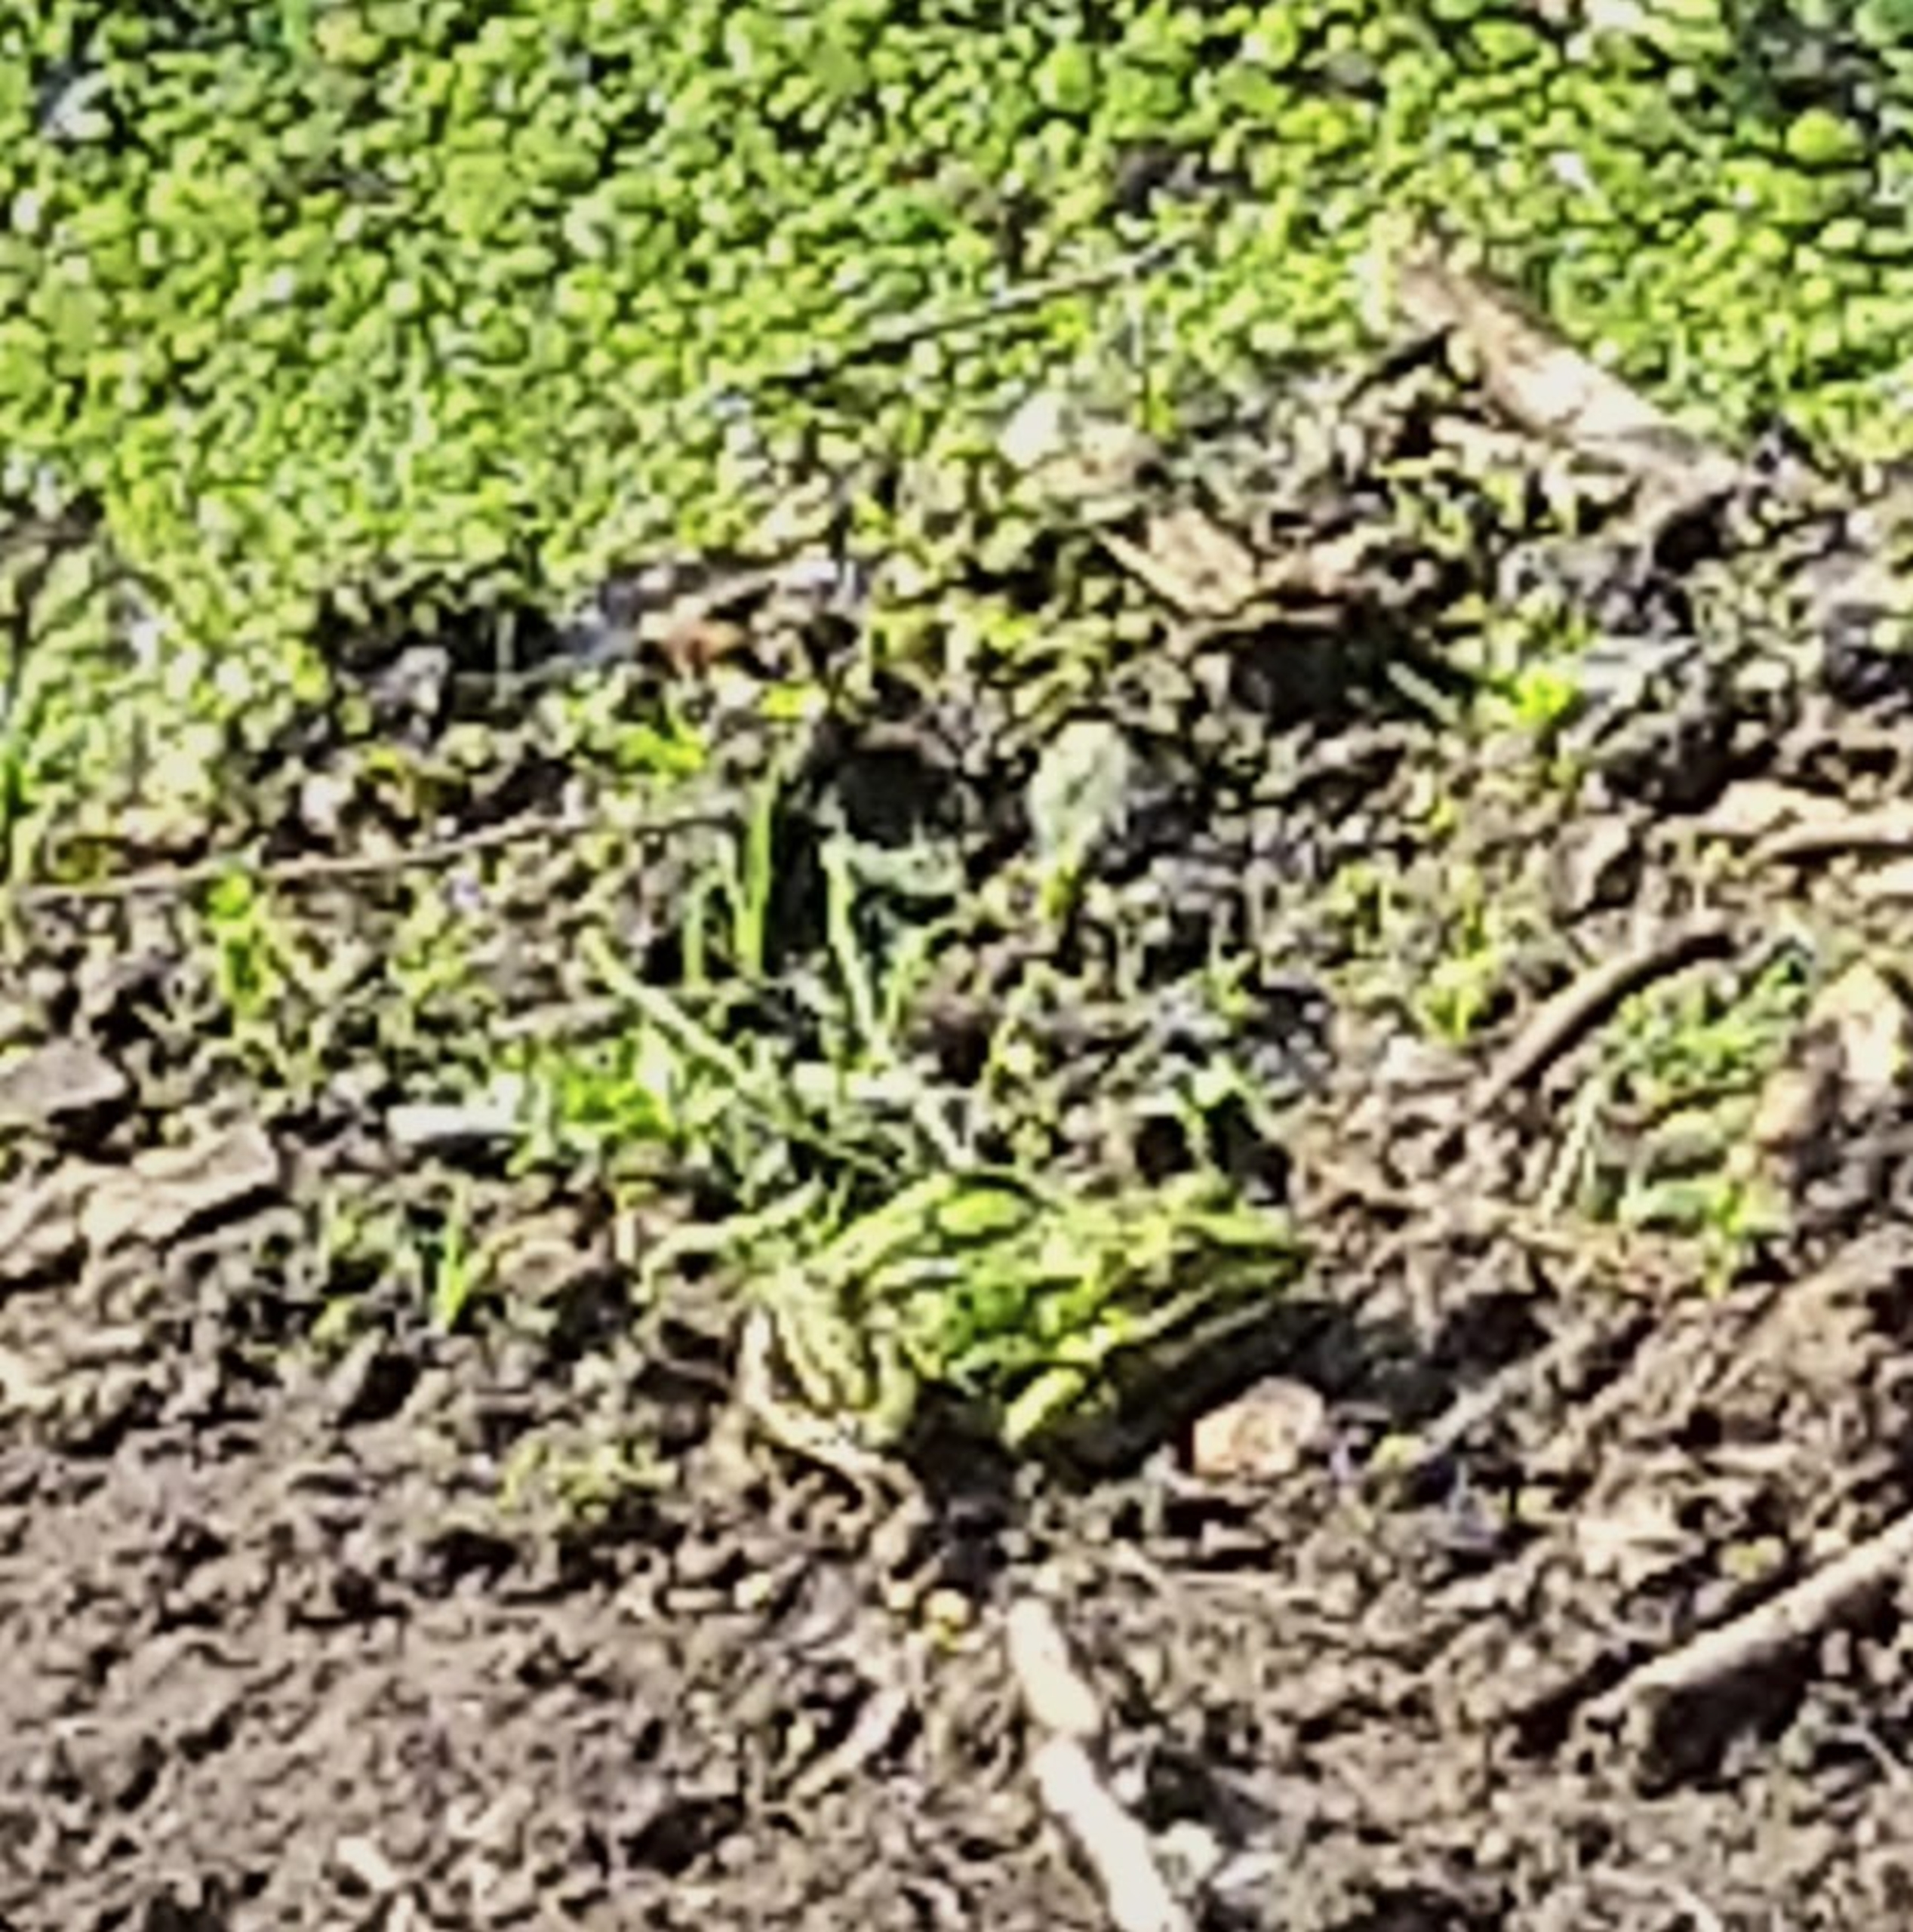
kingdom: Animalia
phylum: Chordata
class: Amphibia
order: Anura
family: Ranidae
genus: Pelophylax
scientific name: Pelophylax lessonae
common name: Grøn frø
